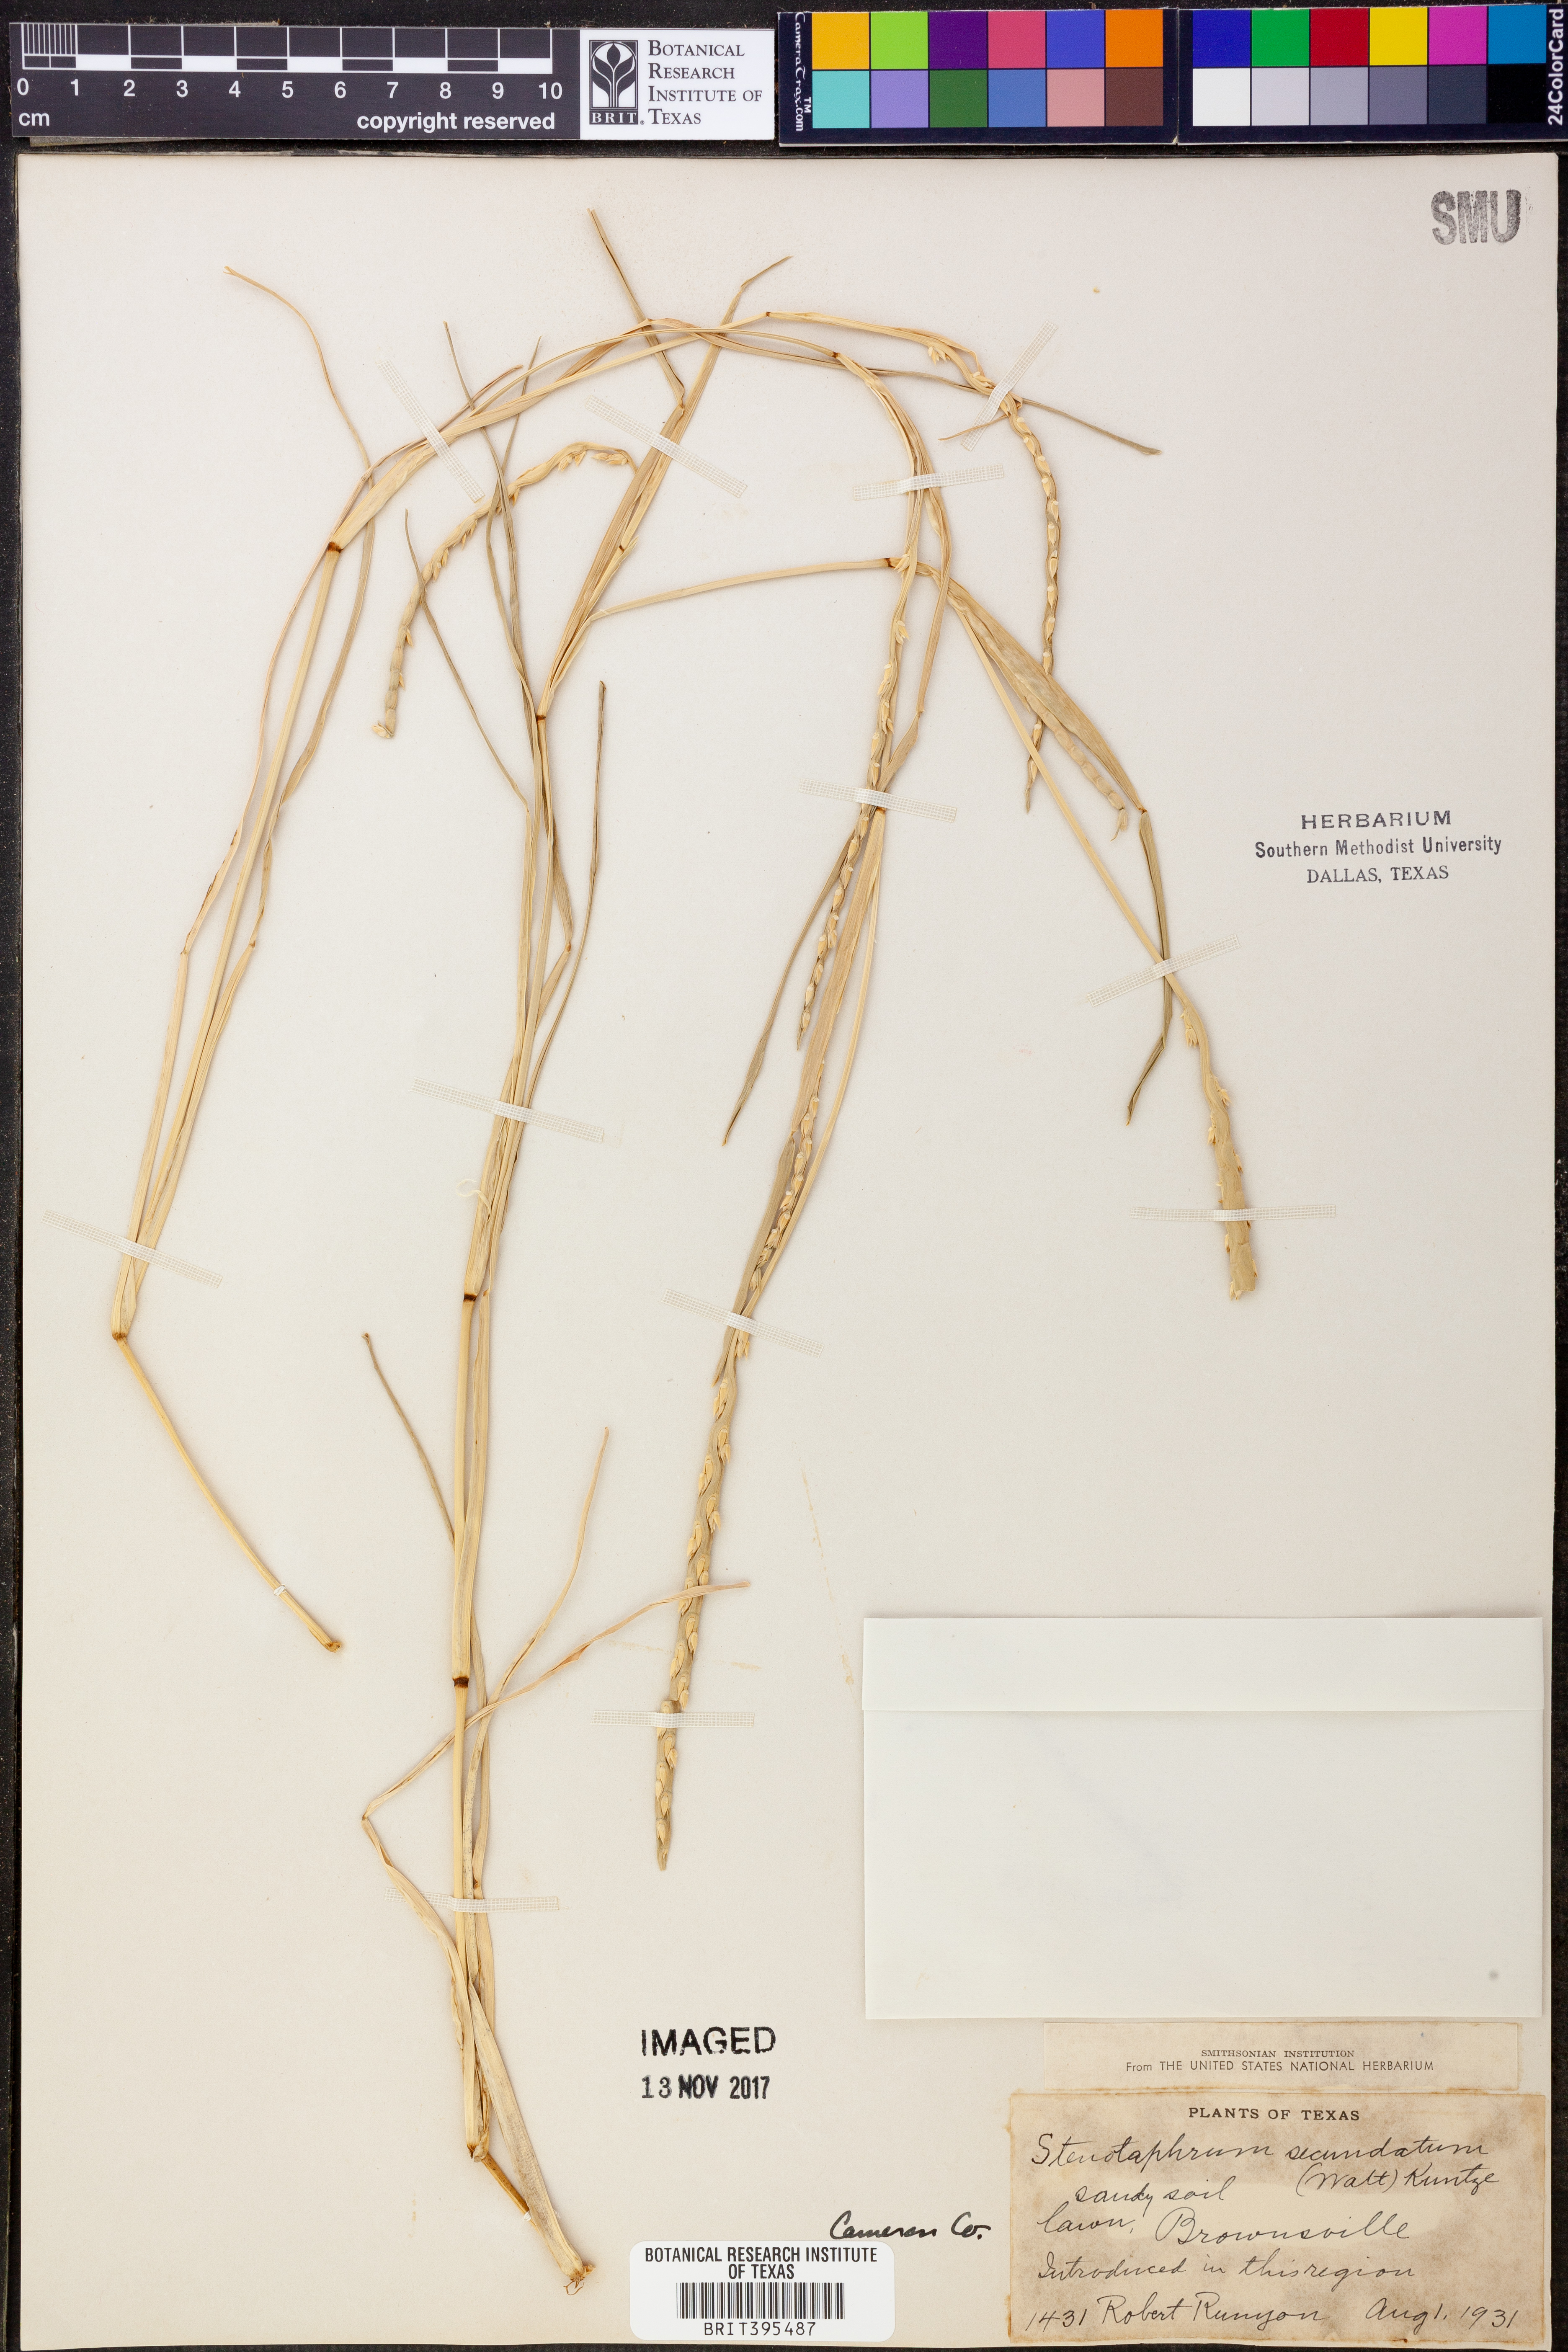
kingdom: Plantae
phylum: Tracheophyta
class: Liliopsida
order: Poales
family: Poaceae
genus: Stenotaphrum
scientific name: Stenotaphrum secundatum
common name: St. augustine grass
